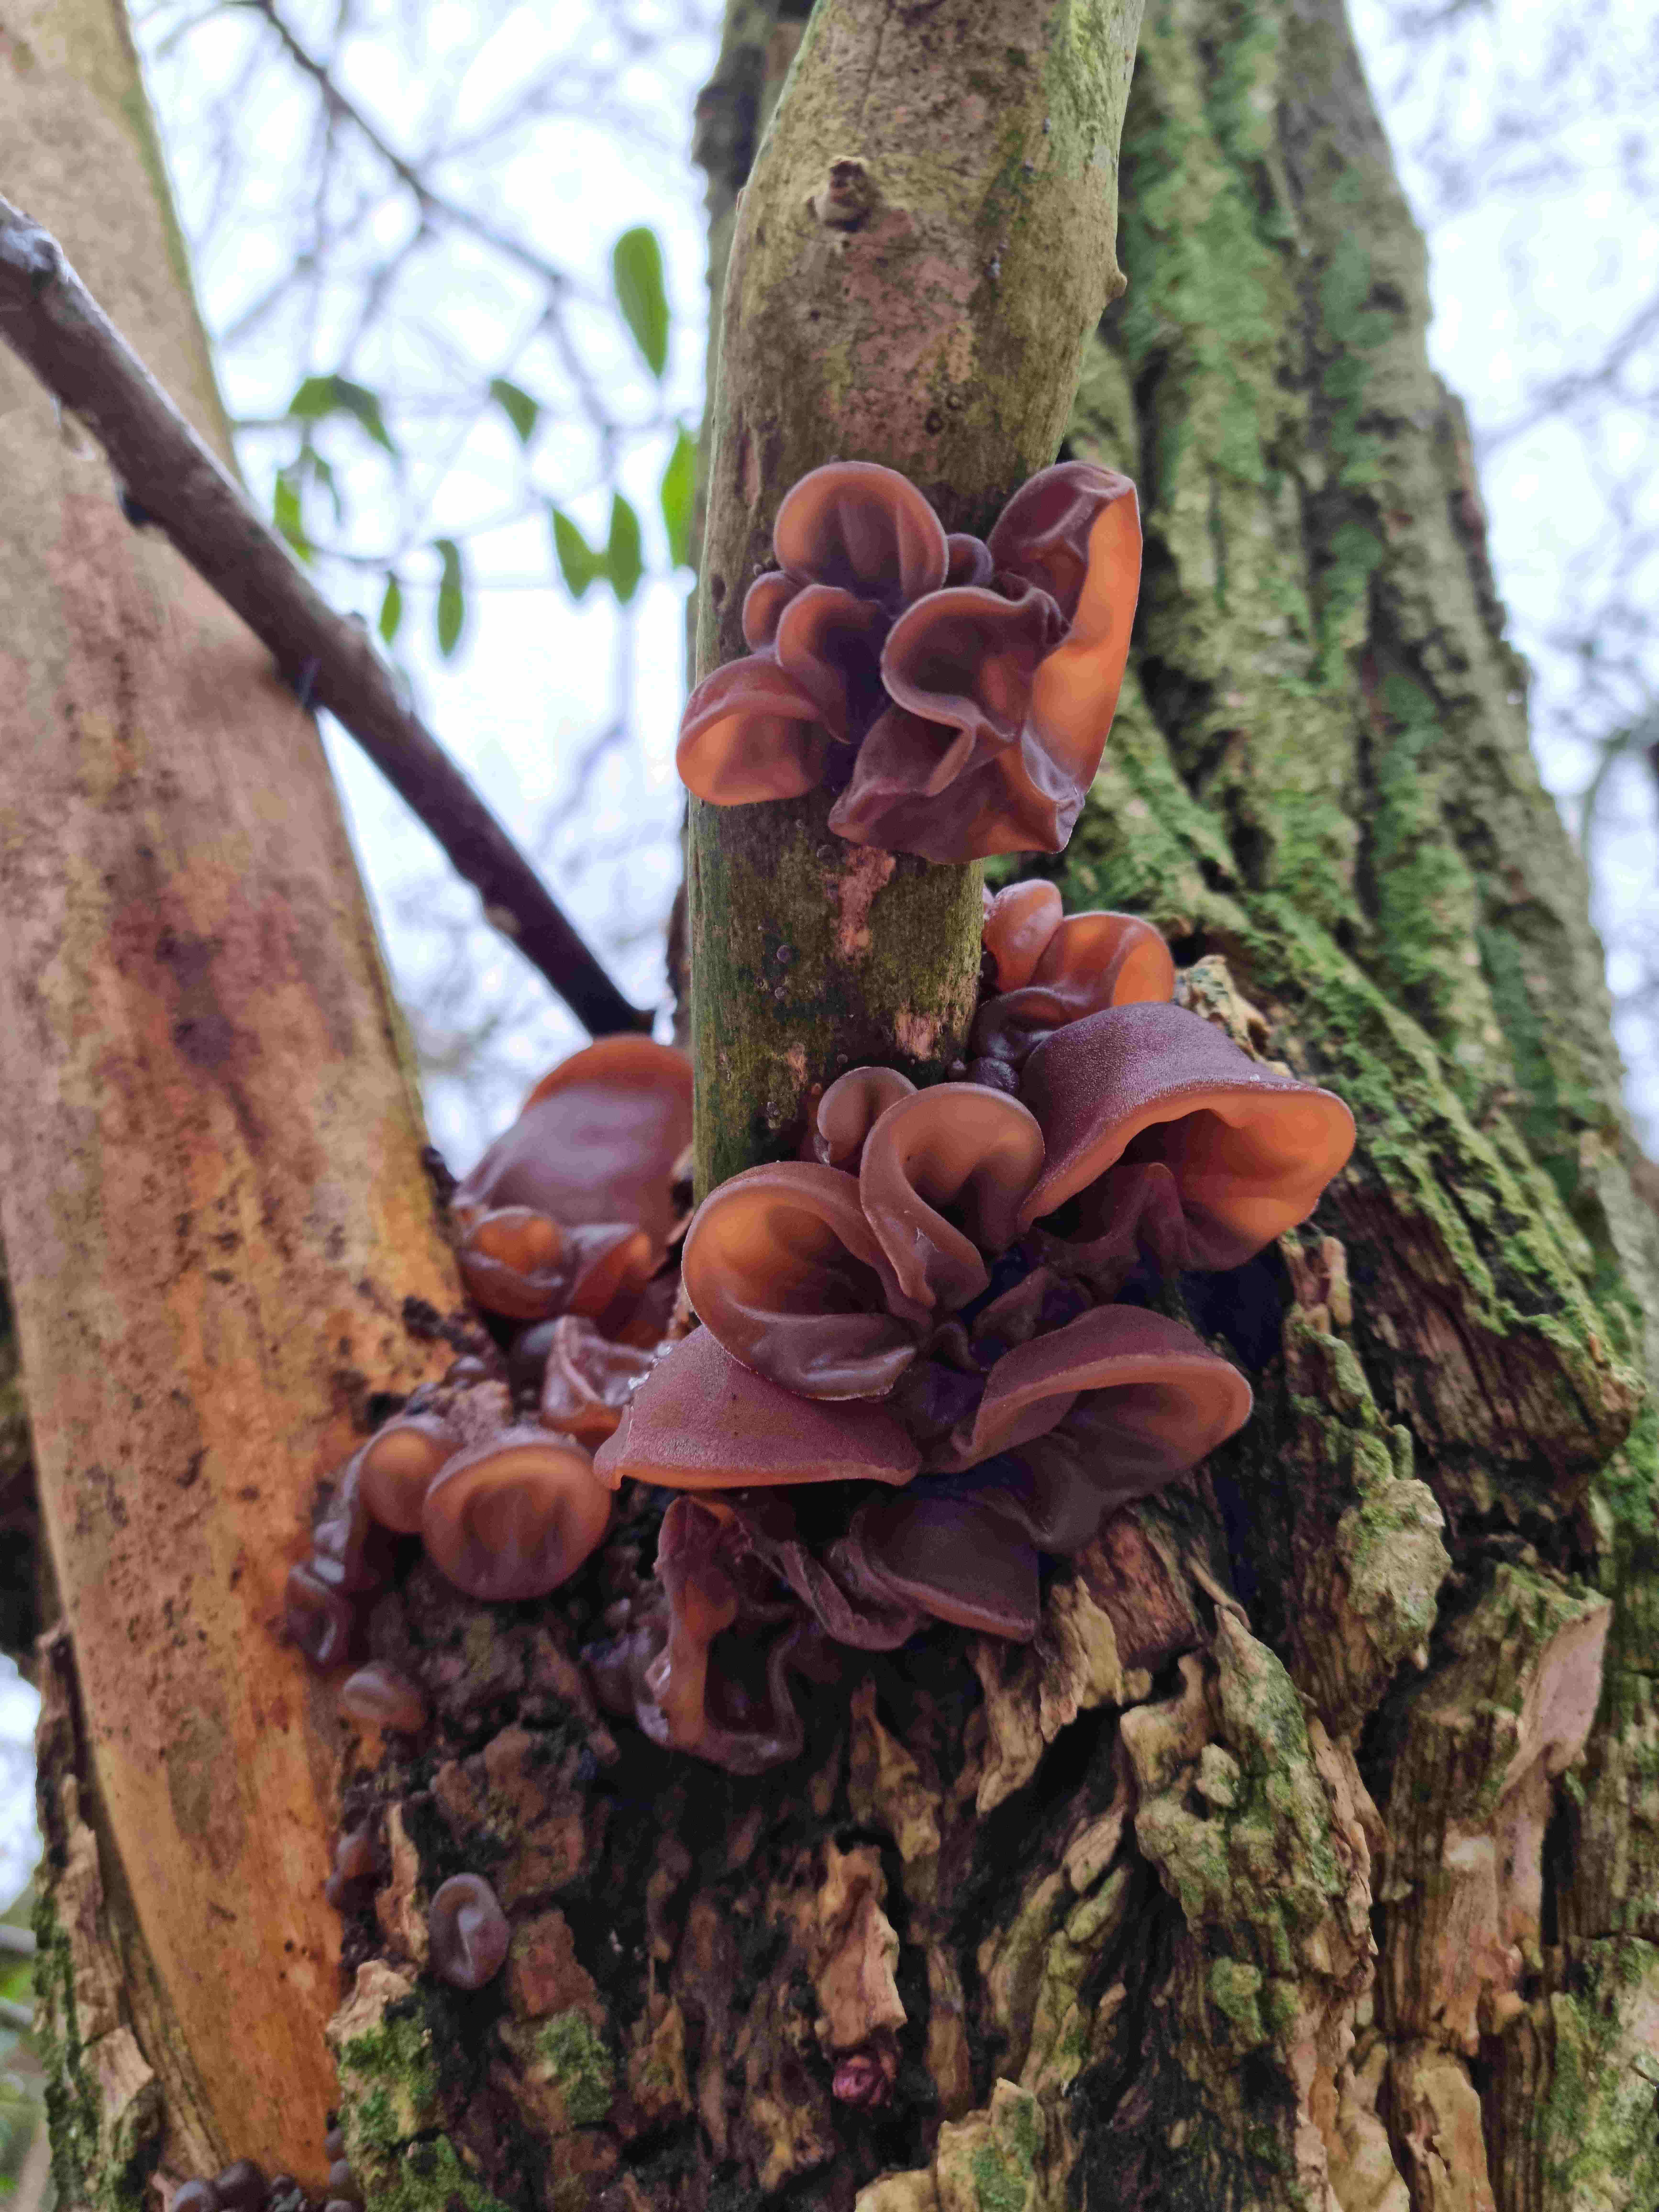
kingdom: Fungi
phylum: Basidiomycota
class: Agaricomycetes
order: Auriculariales
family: Auriculariaceae
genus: Auricularia
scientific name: Auricularia auricula-judae
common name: almindelig judasøre
